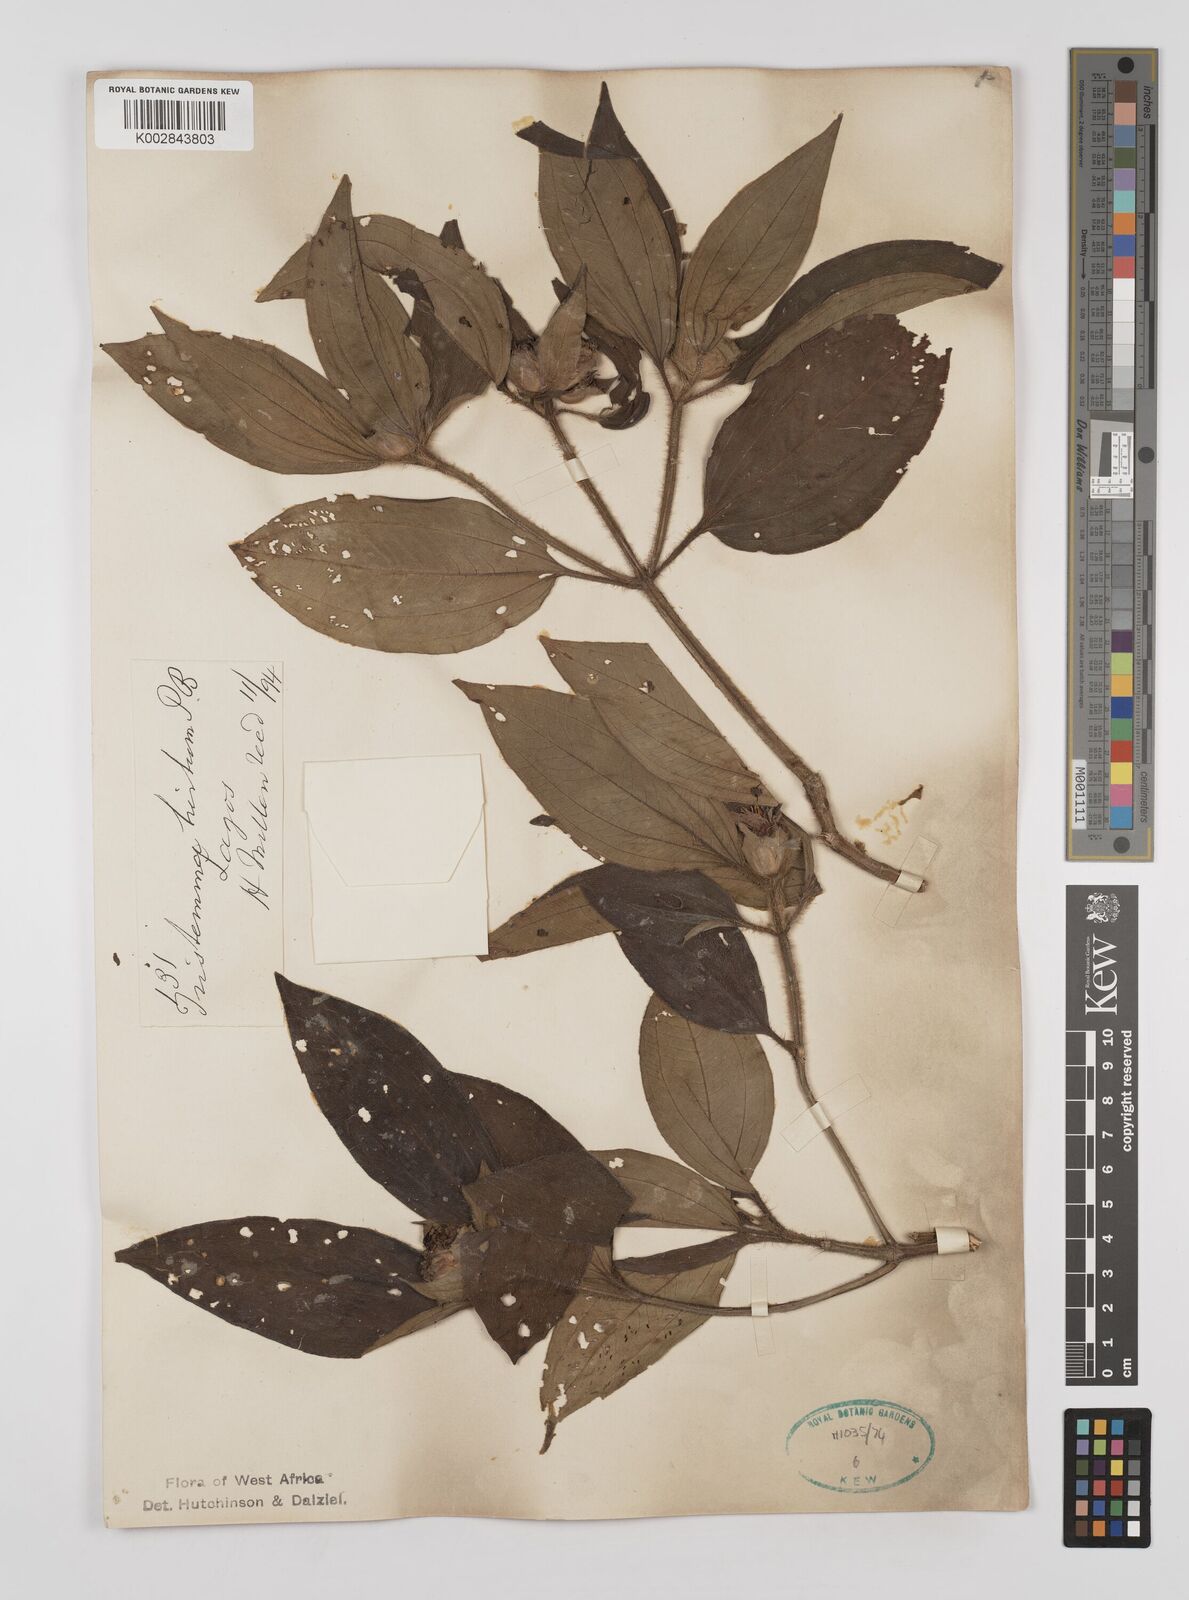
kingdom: Plantae
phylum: Tracheophyta
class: Magnoliopsida
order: Myrtales
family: Melastomataceae
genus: Tristemma
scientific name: Tristemma hirtum
